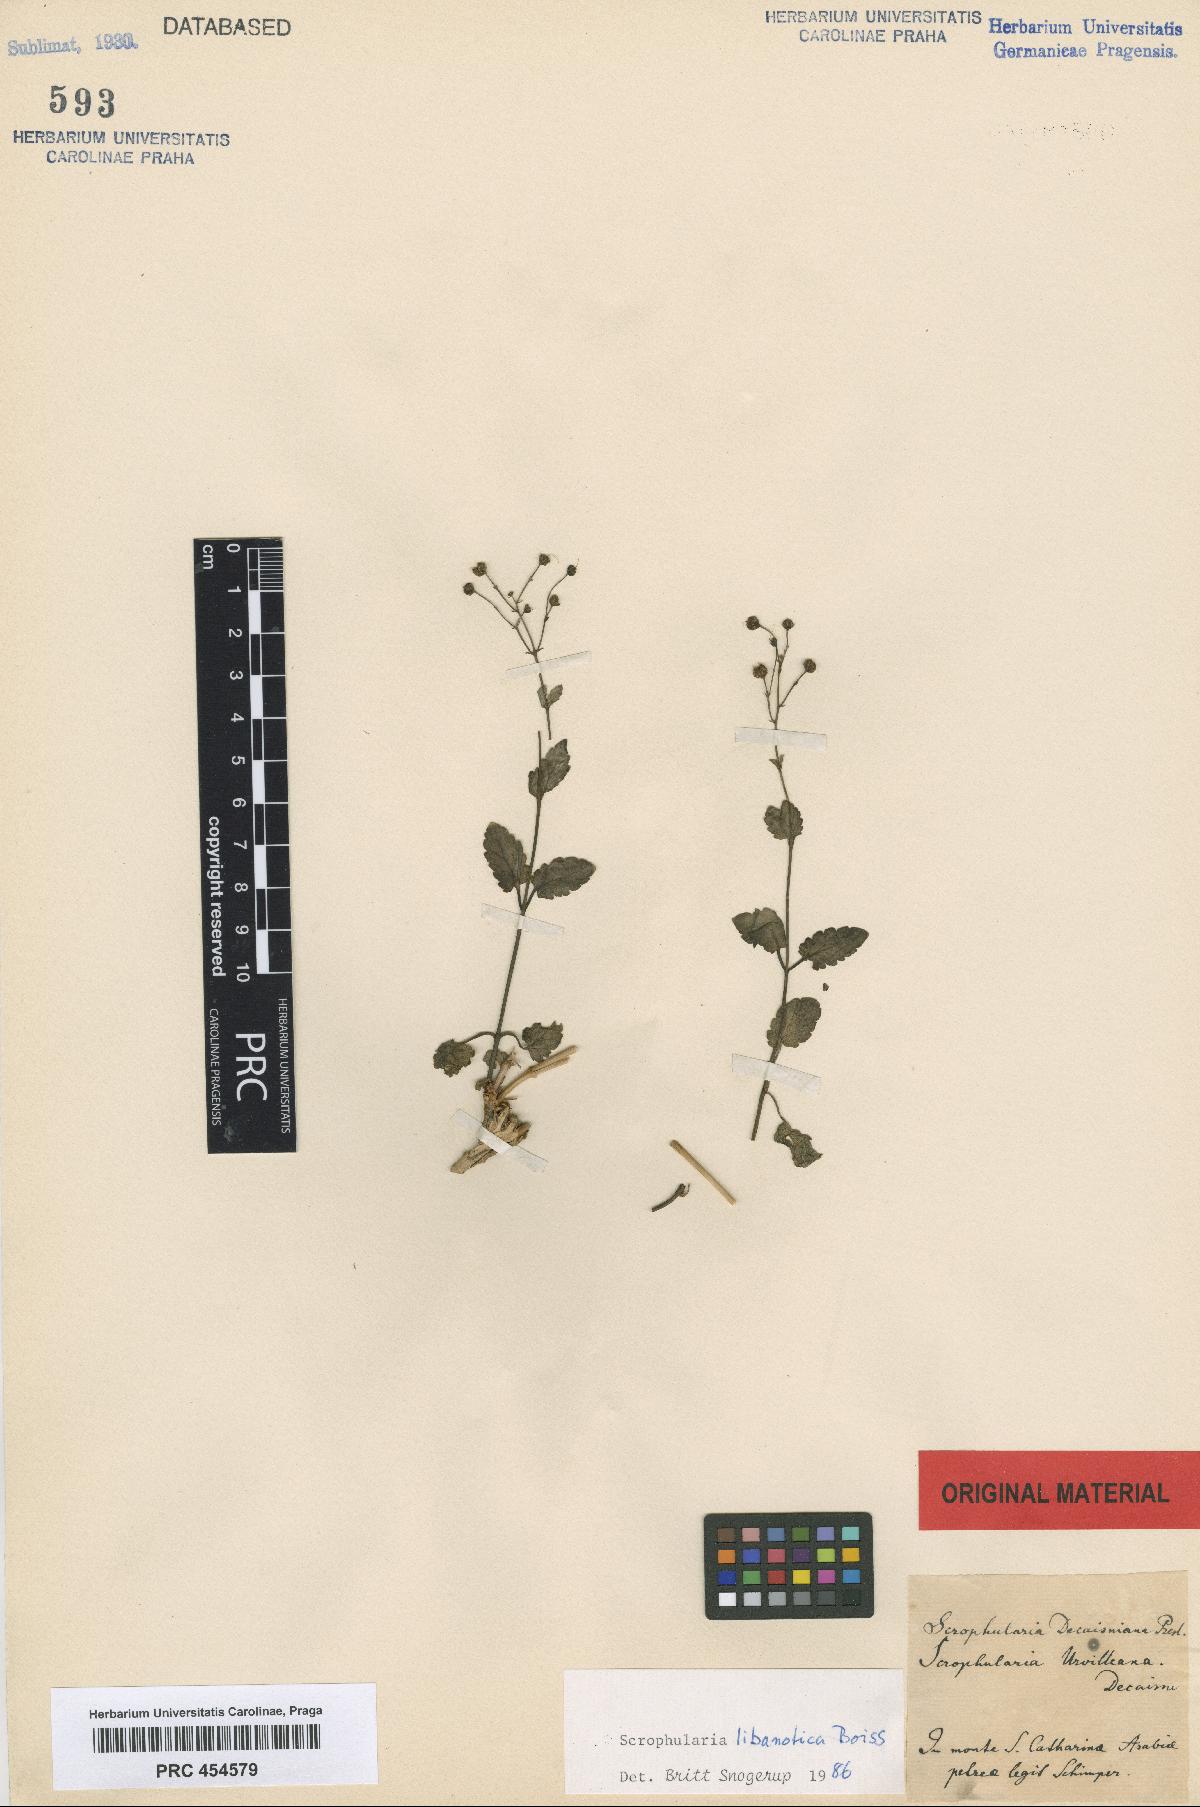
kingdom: Plantae
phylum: Tracheophyta
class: Magnoliopsida
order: Lamiales
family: Scrophulariaceae
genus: Scrophularia
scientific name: Scrophularia libanotica
